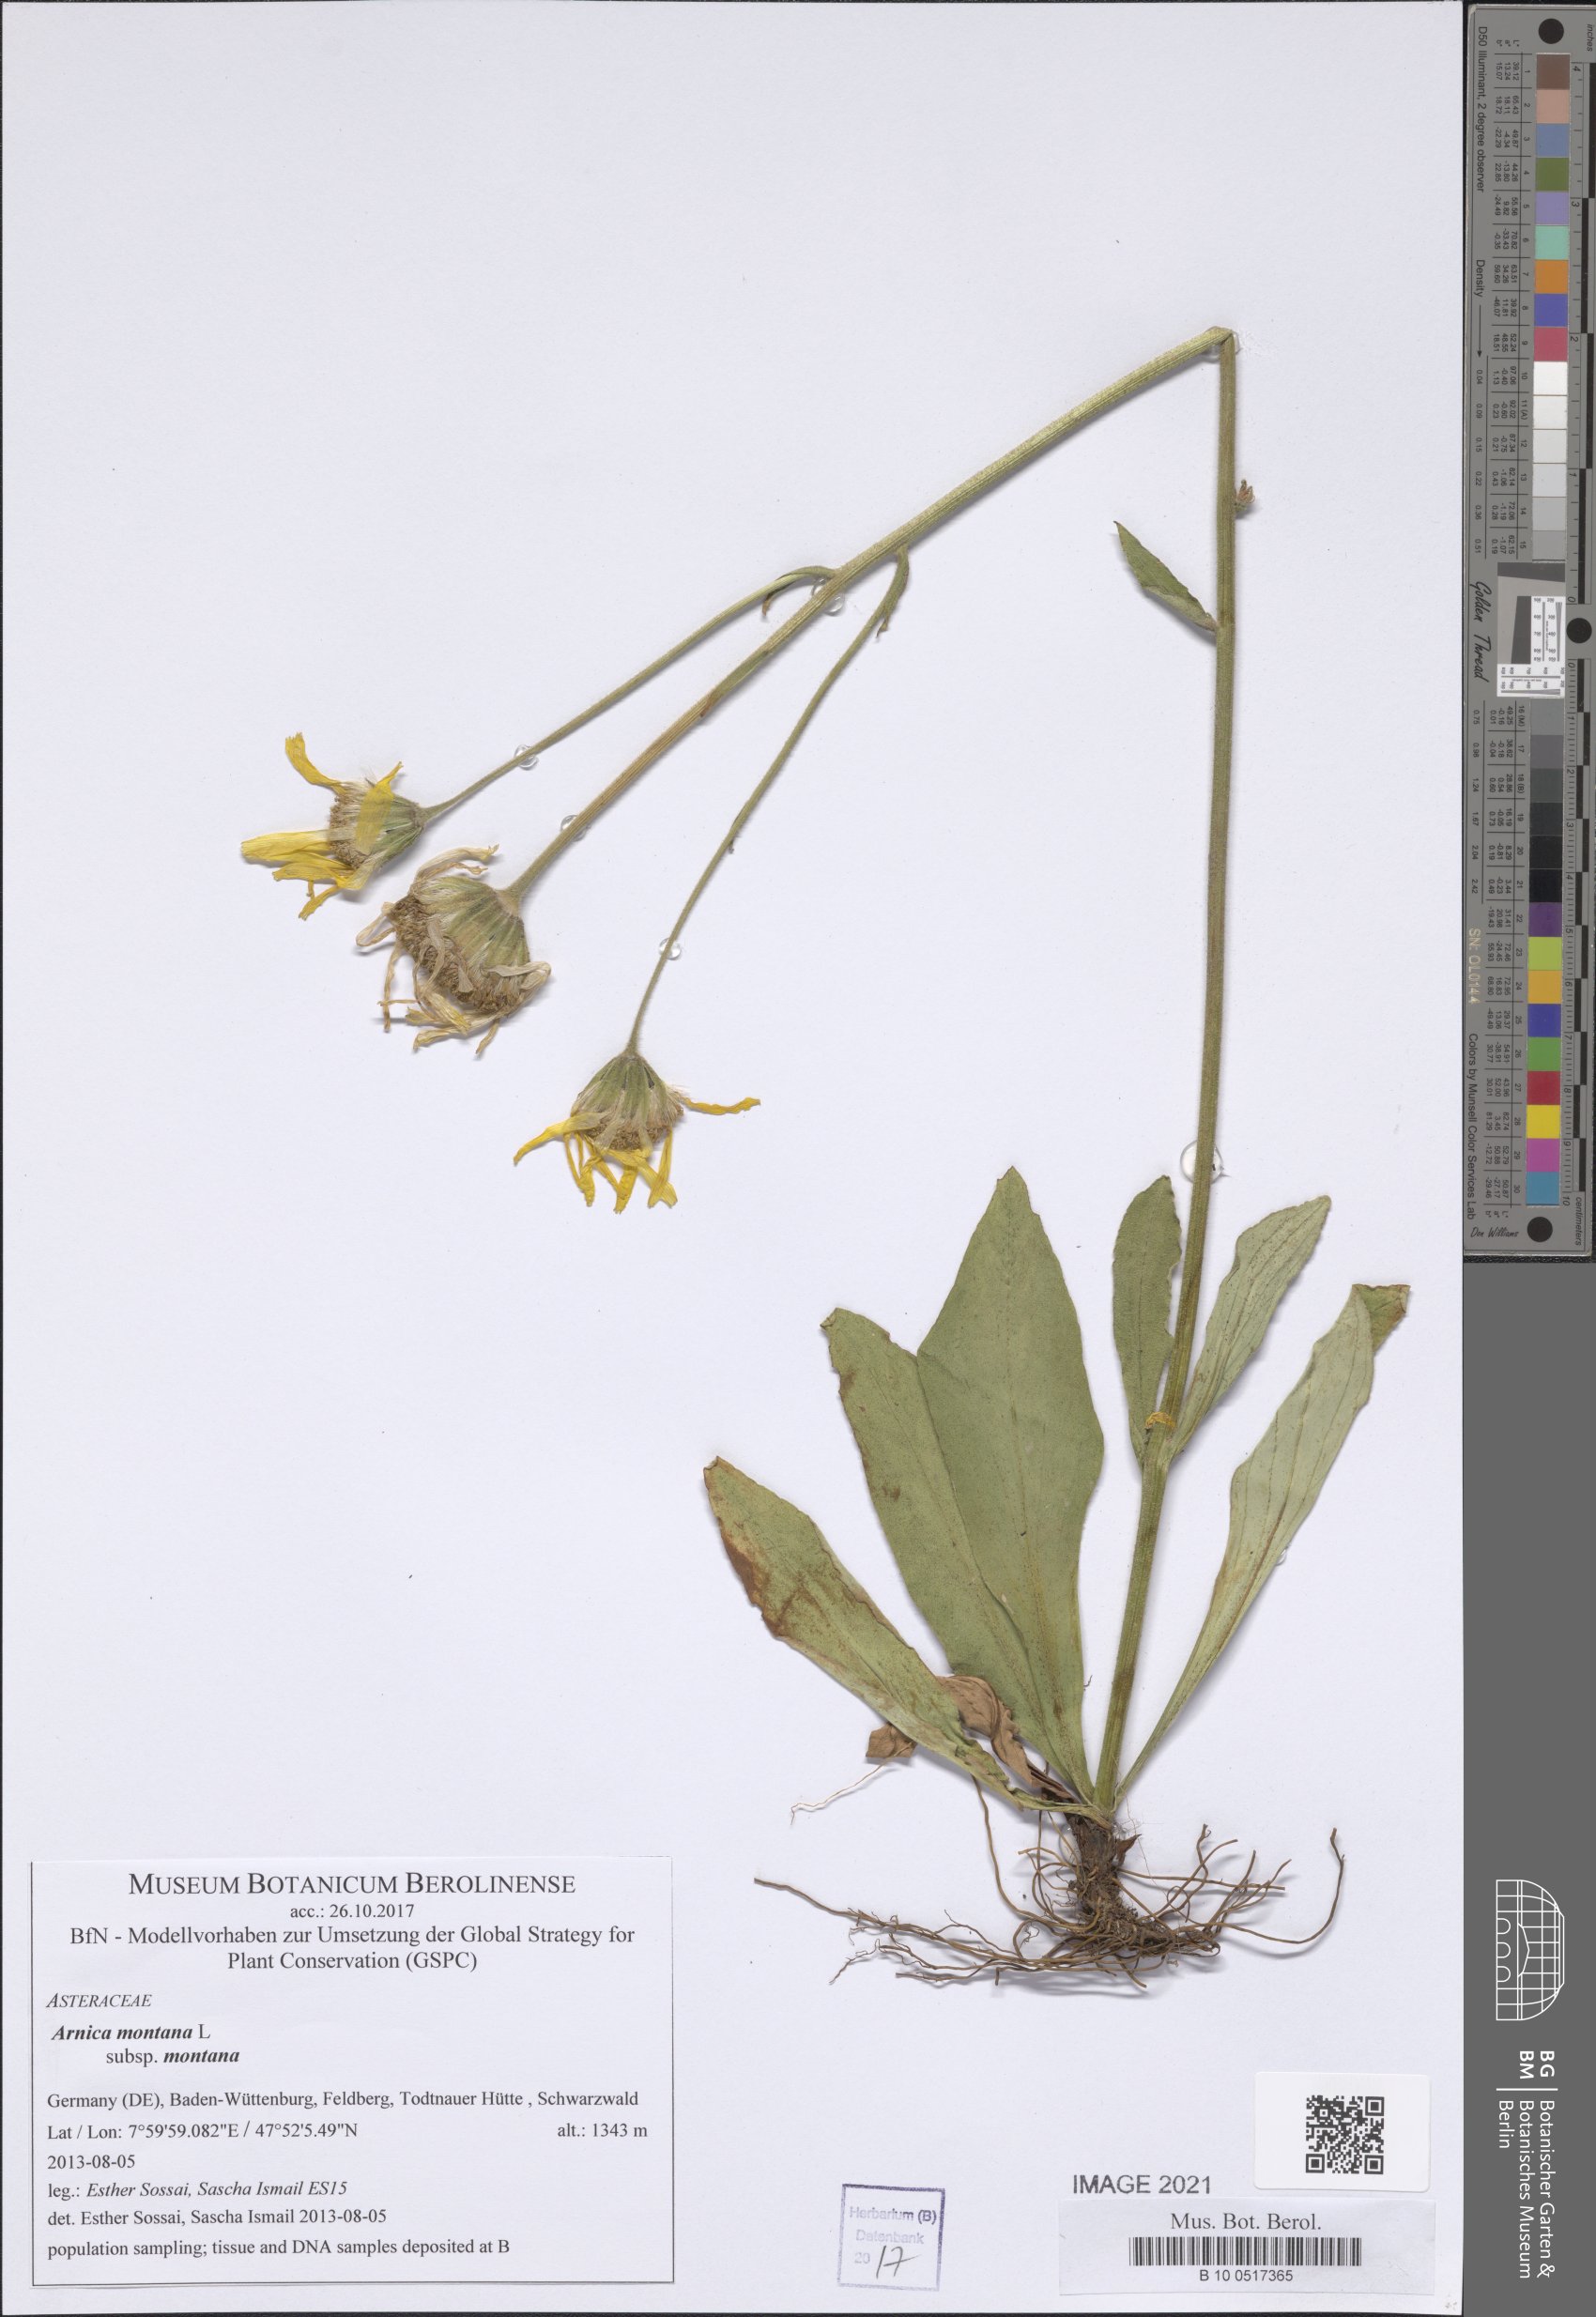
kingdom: Plantae
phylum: Tracheophyta
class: Magnoliopsida
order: Asterales
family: Asteraceae
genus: Arnica
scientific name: Arnica montana
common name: Leopard's bane
